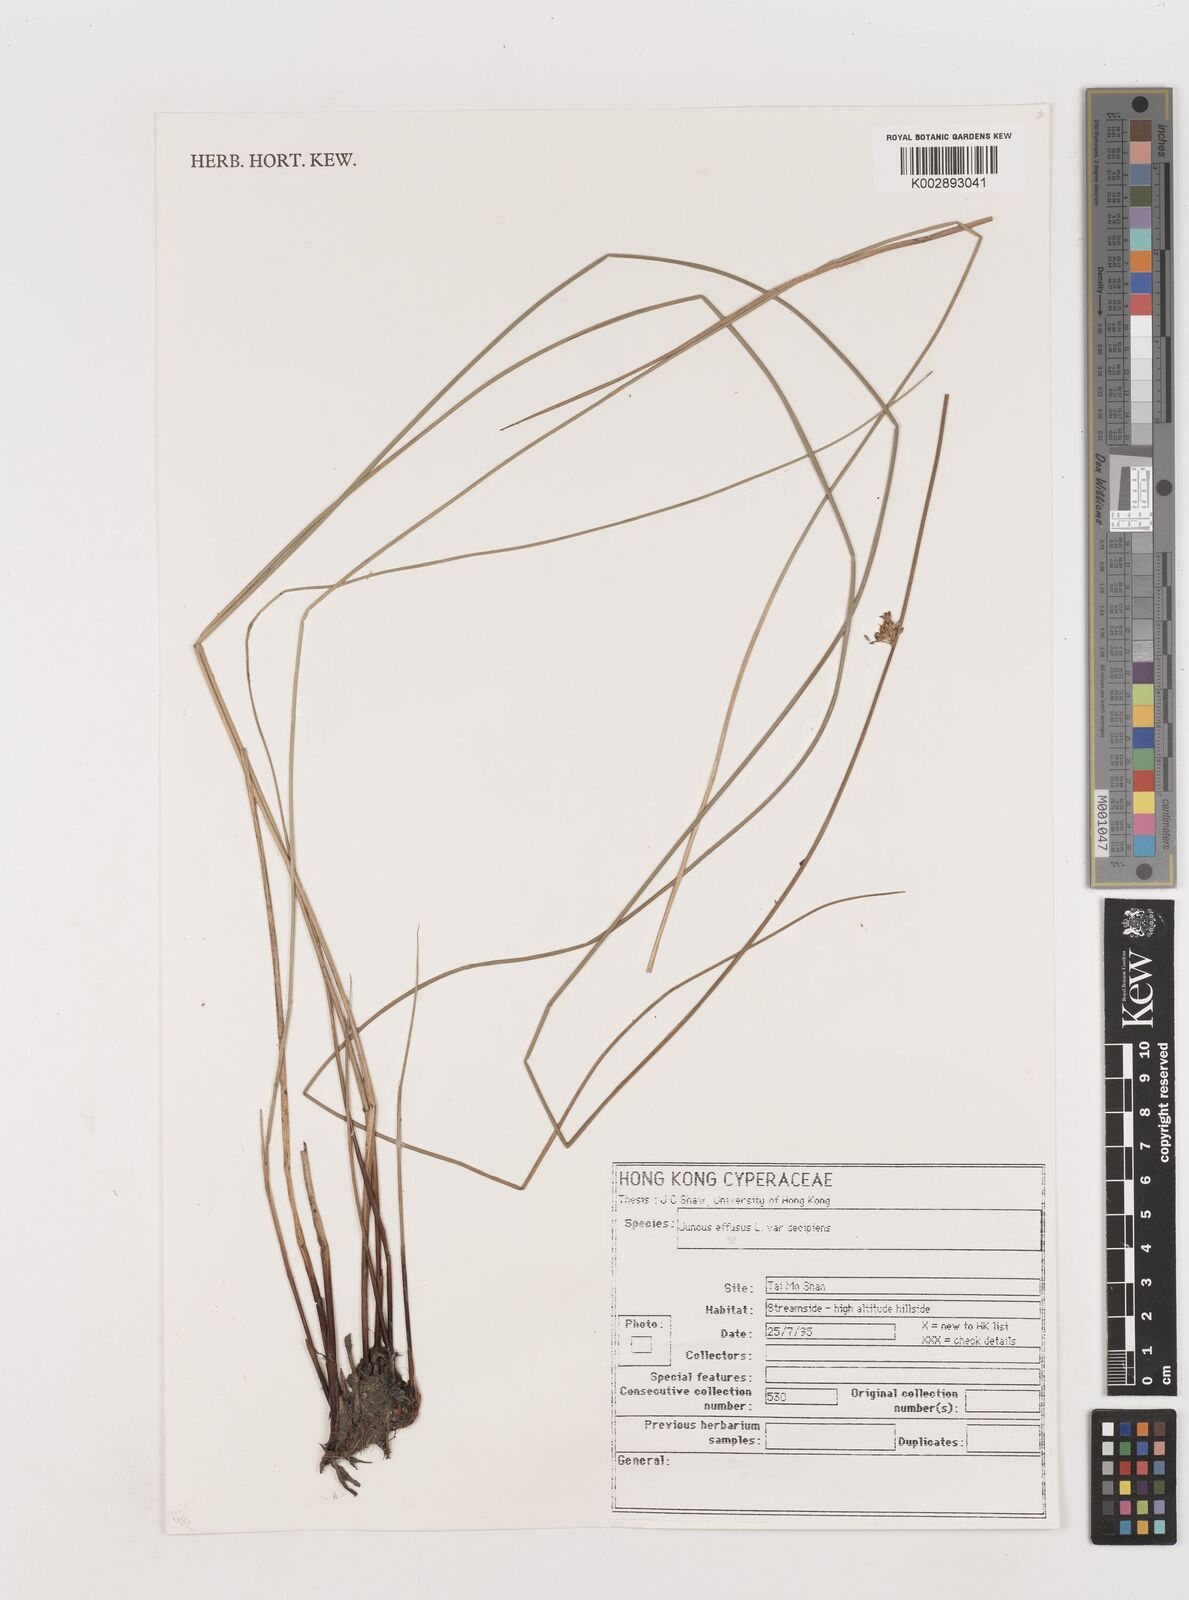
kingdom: Plantae
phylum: Tracheophyta
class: Liliopsida
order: Poales
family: Juncaceae
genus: Juncus
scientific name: Juncus effusus
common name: Soft rush
